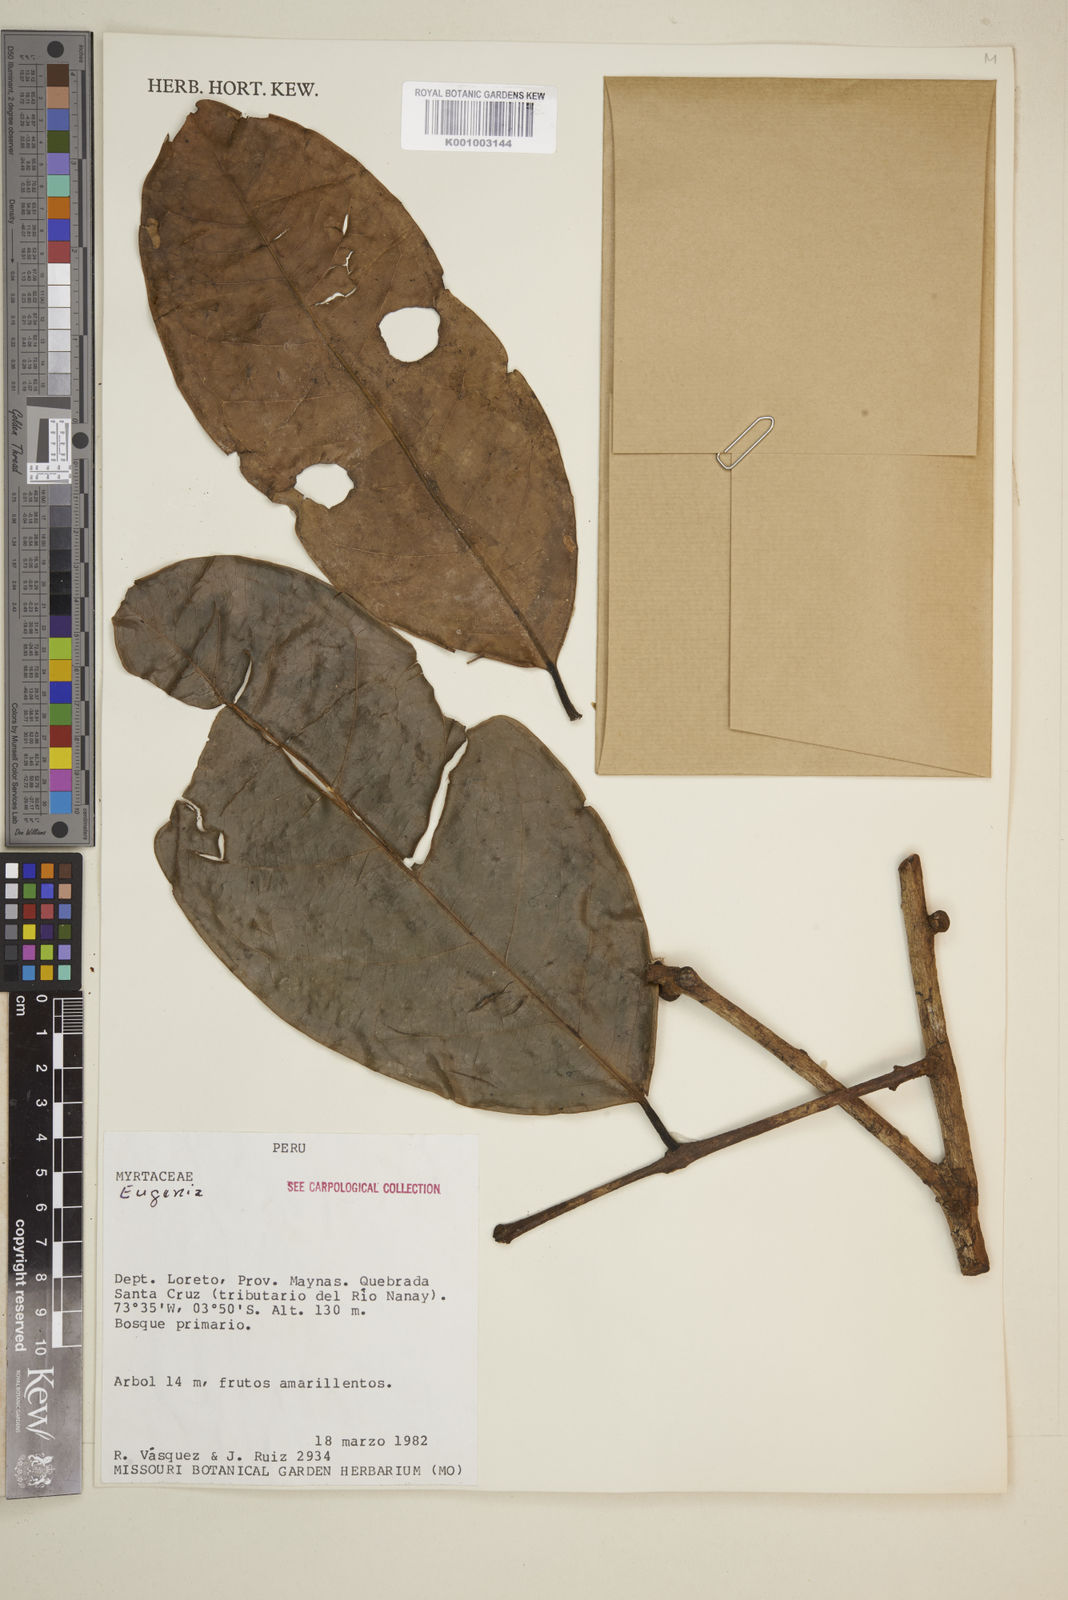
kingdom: Plantae
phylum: Tracheophyta
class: Magnoliopsida
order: Myrtales
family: Myrtaceae
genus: Eugenia
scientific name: Eugenia
